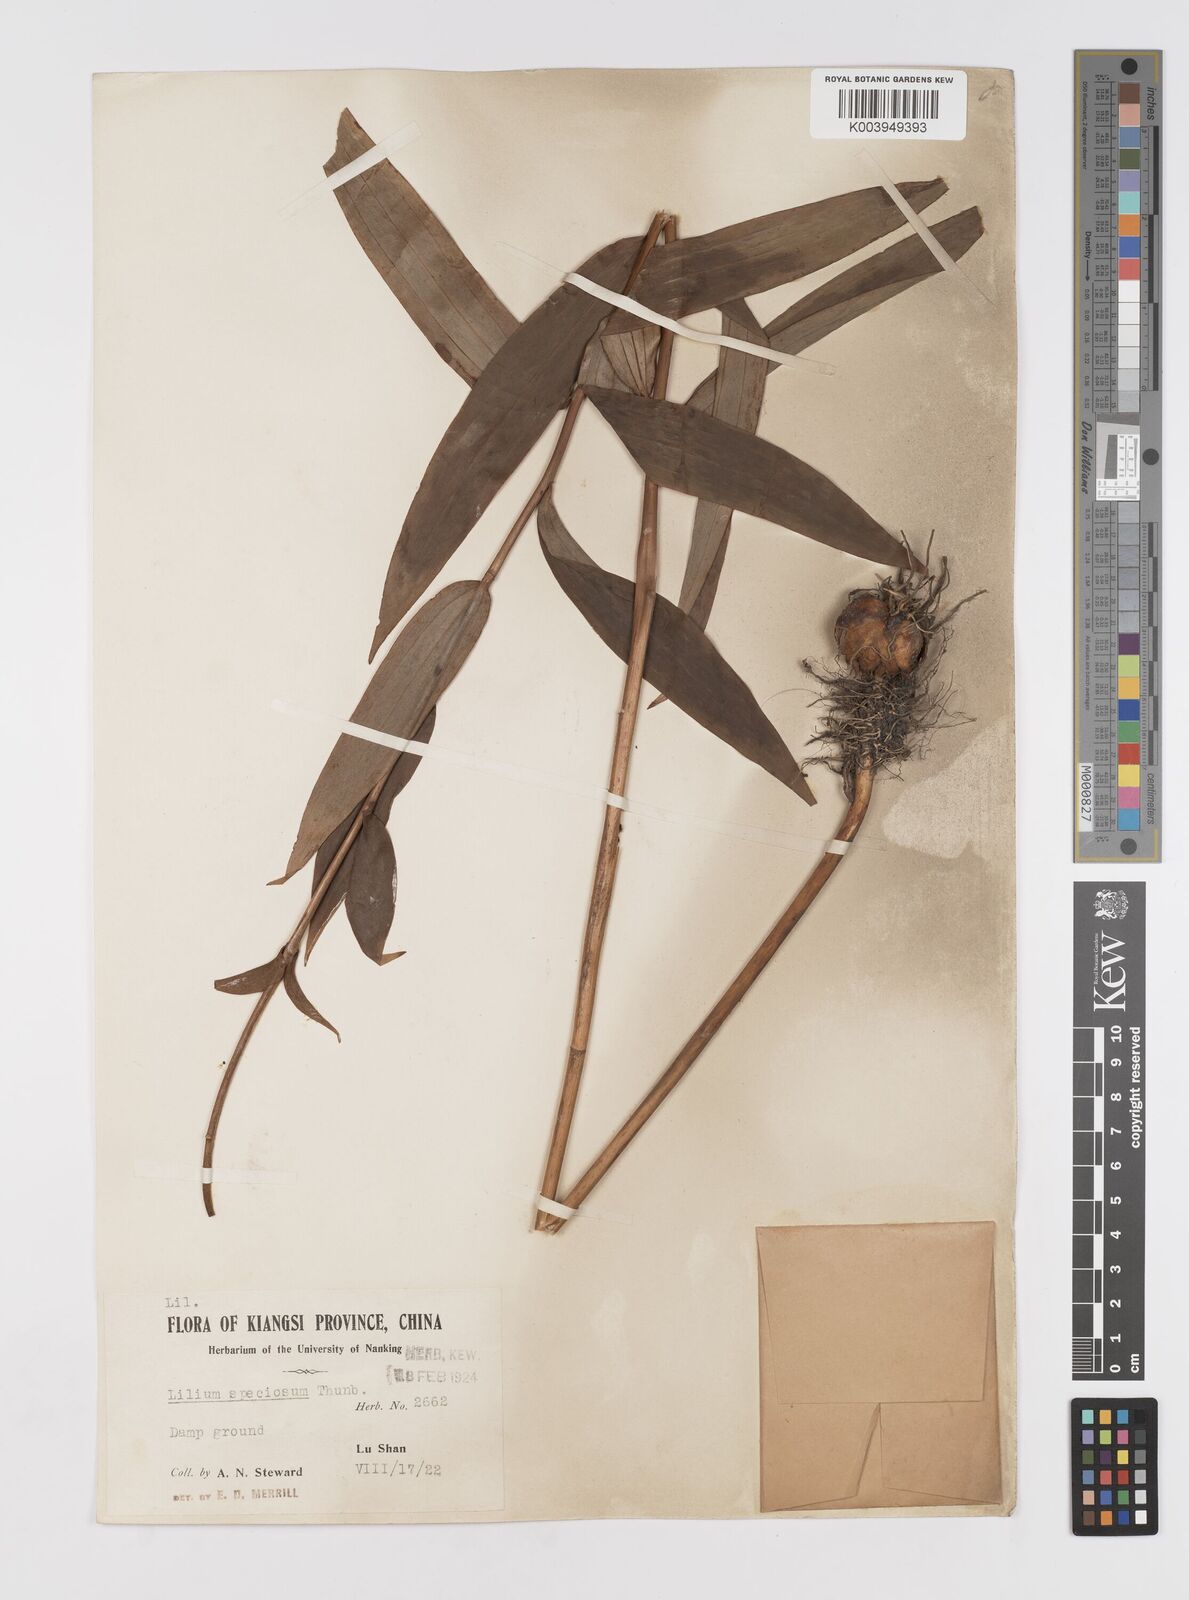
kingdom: Plantae
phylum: Tracheophyta
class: Liliopsida
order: Liliales
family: Liliaceae
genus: Lilium
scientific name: Lilium speciosum
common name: Japanese lily
